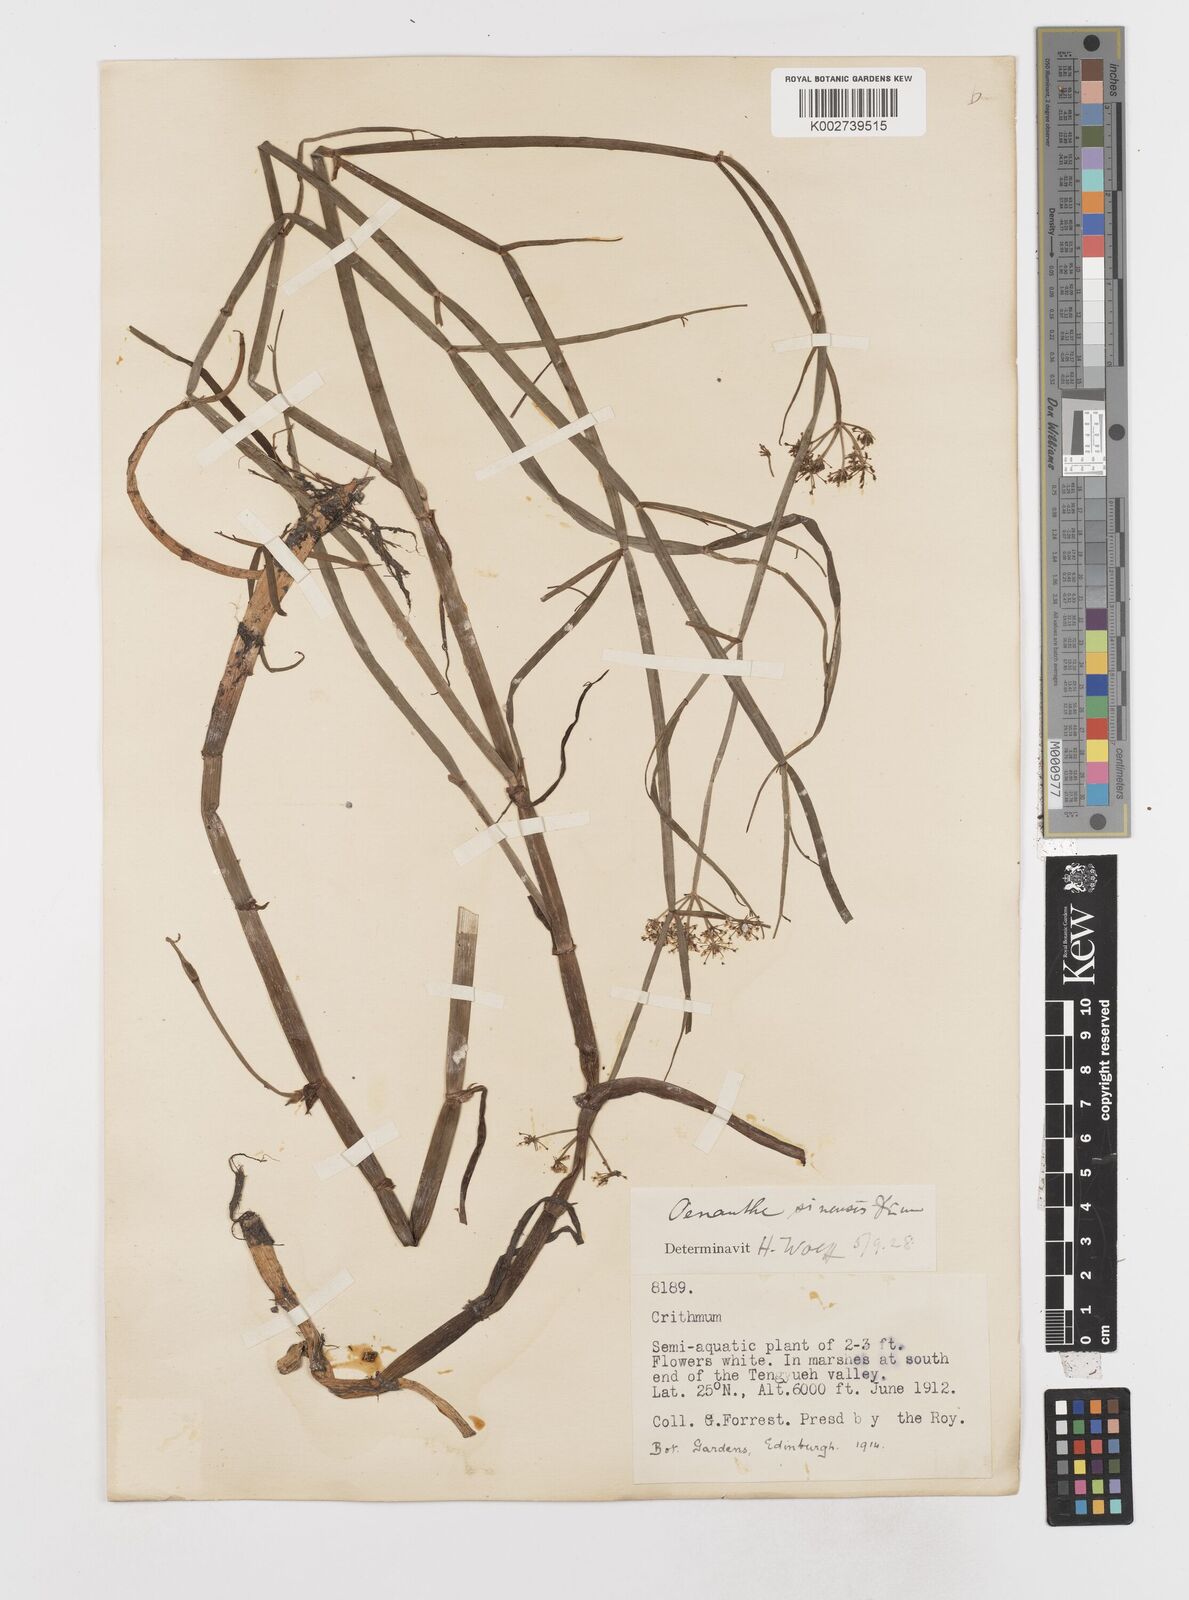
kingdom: Plantae
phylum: Tracheophyta
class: Magnoliopsida
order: Apiales
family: Apiaceae
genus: Oenanthe
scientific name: Oenanthe linearis
